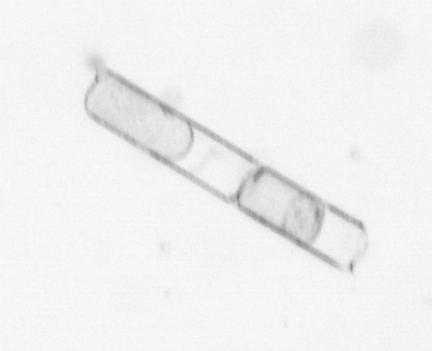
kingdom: Chromista
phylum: Ochrophyta
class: Bacillariophyceae
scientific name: Bacillariophyceae
